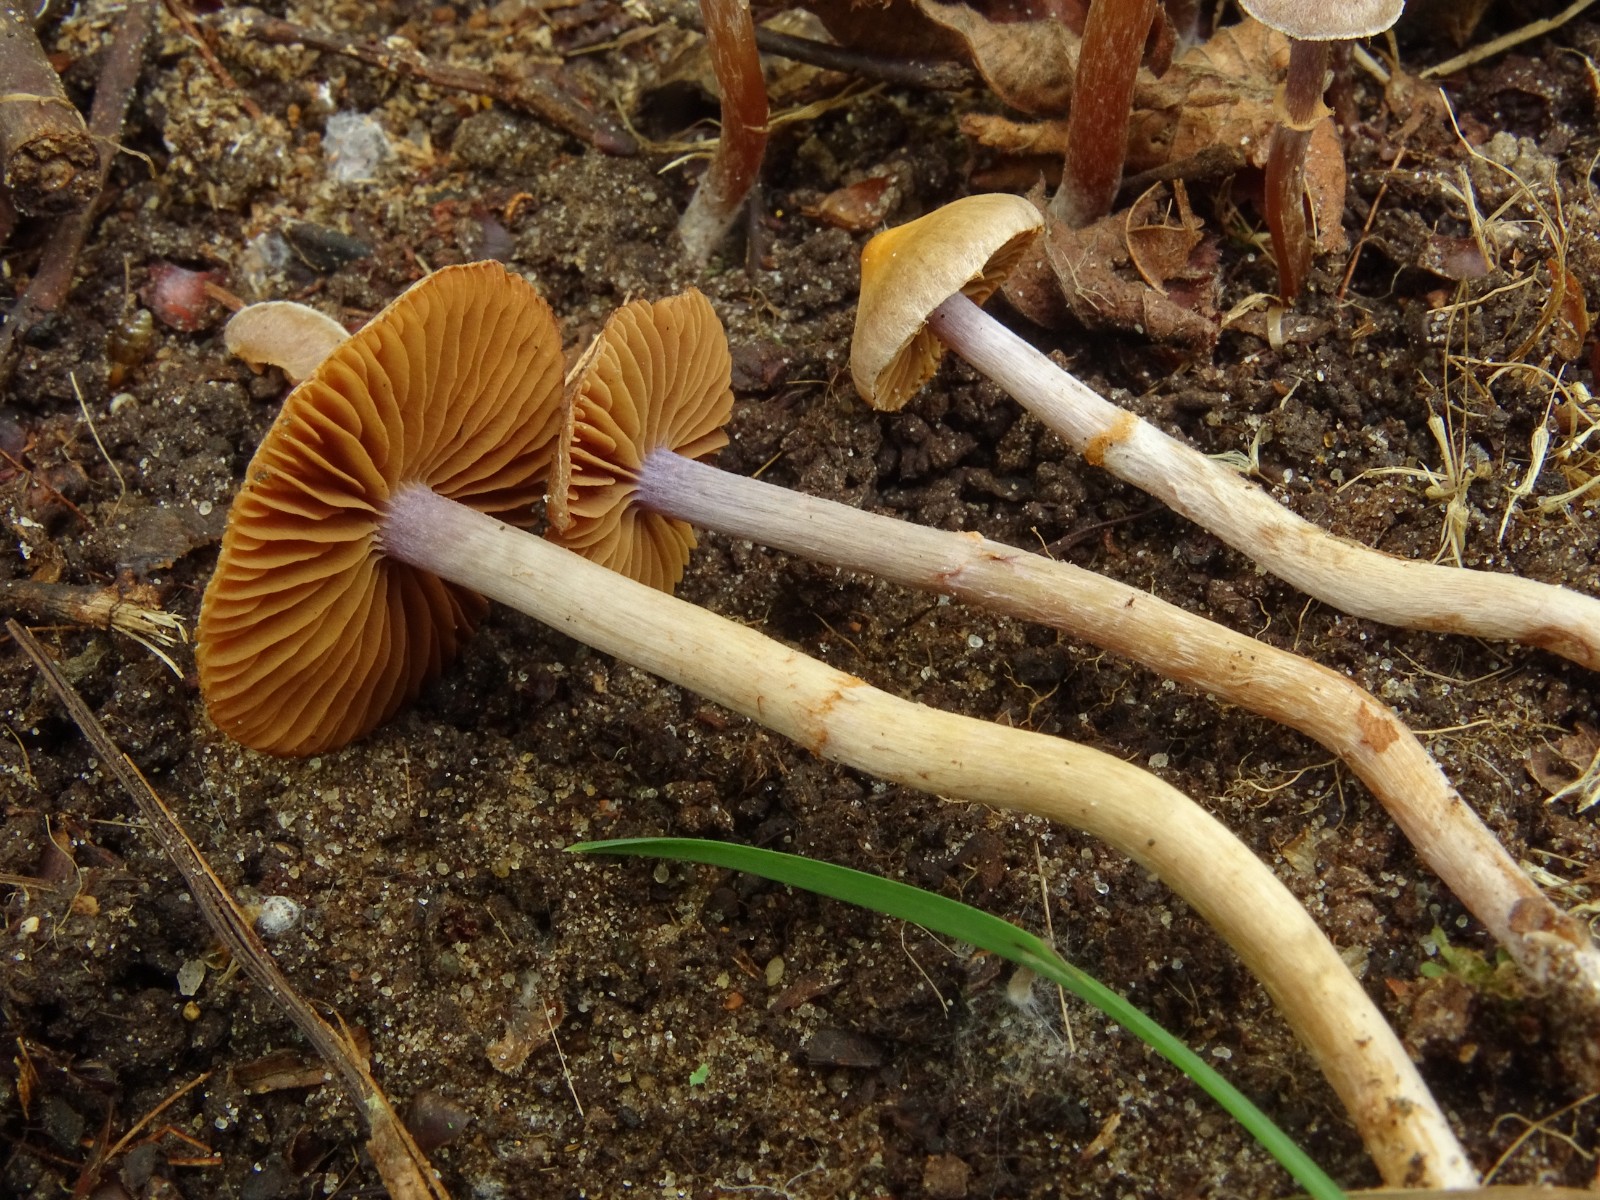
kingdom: Fungi
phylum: Basidiomycota
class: Agaricomycetes
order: Agaricales
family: Cortinariaceae
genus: Cortinarius
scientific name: Cortinarius cistopulchripes
